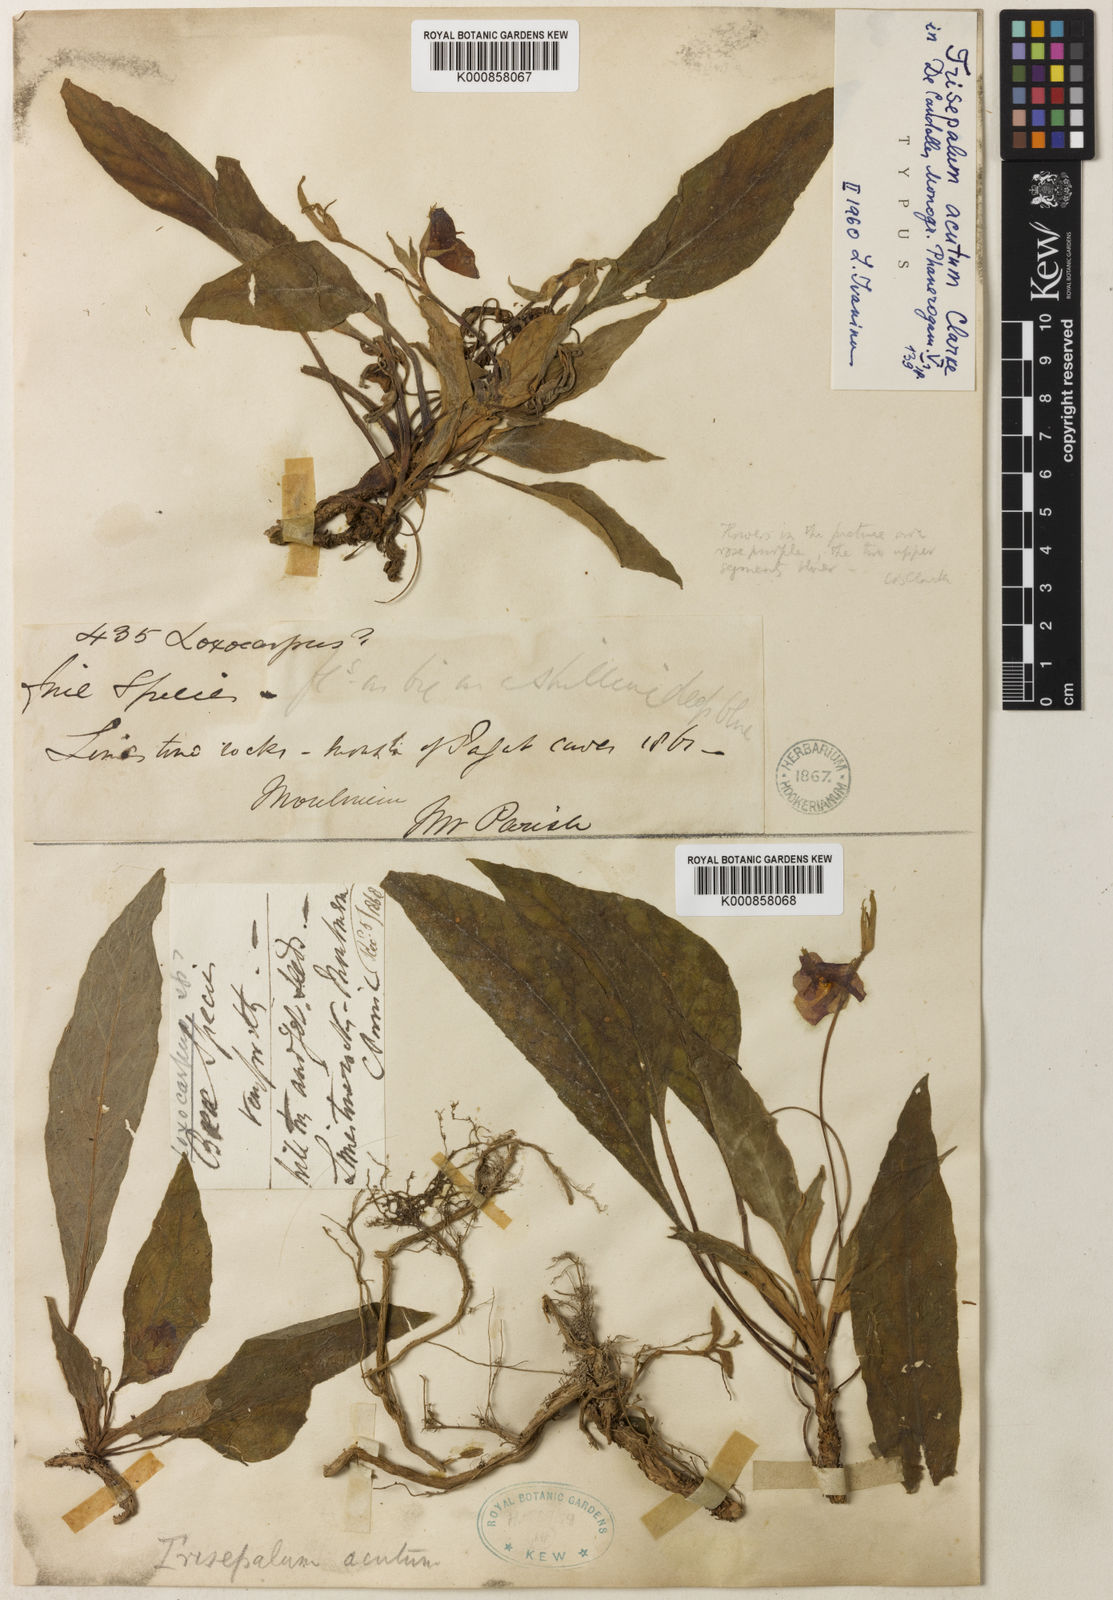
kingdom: Plantae
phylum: Tracheophyta
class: Magnoliopsida
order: Lamiales
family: Gesneriaceae
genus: Paraboea
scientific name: Paraboea acuta
